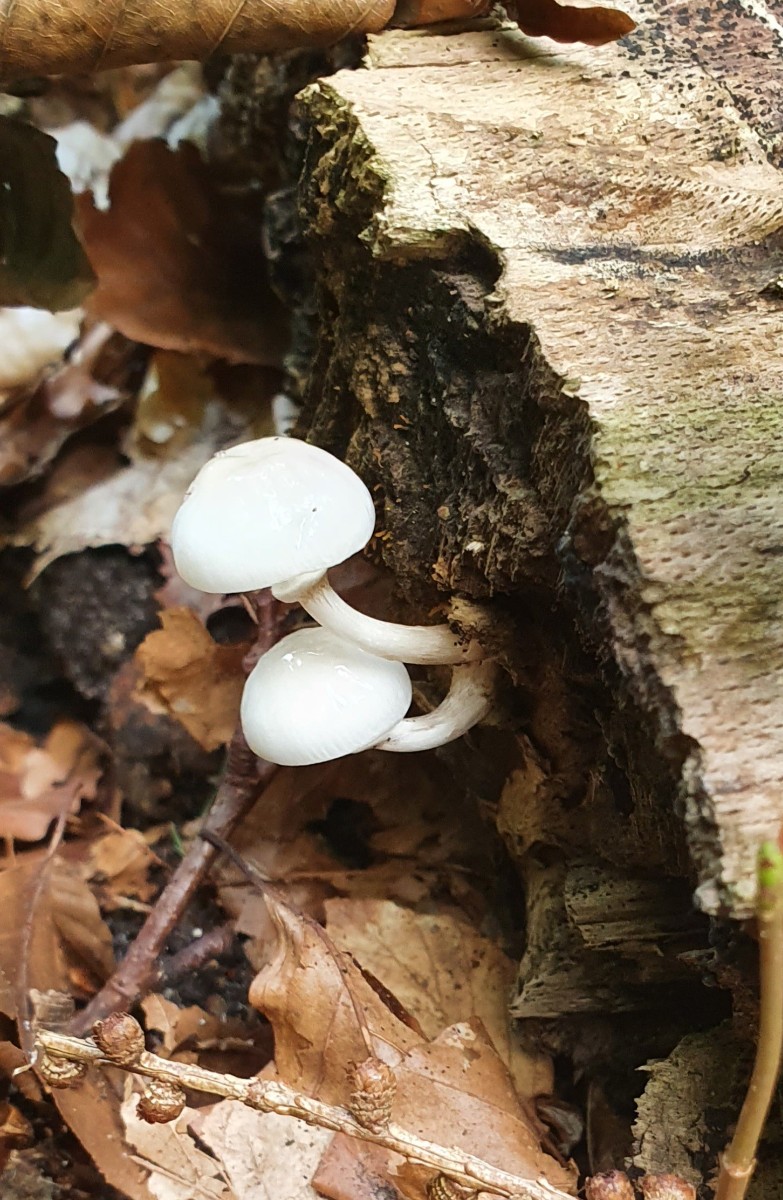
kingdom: Fungi
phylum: Basidiomycota
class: Agaricomycetes
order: Agaricales
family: Physalacriaceae
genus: Mucidula
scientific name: Mucidula mucida
